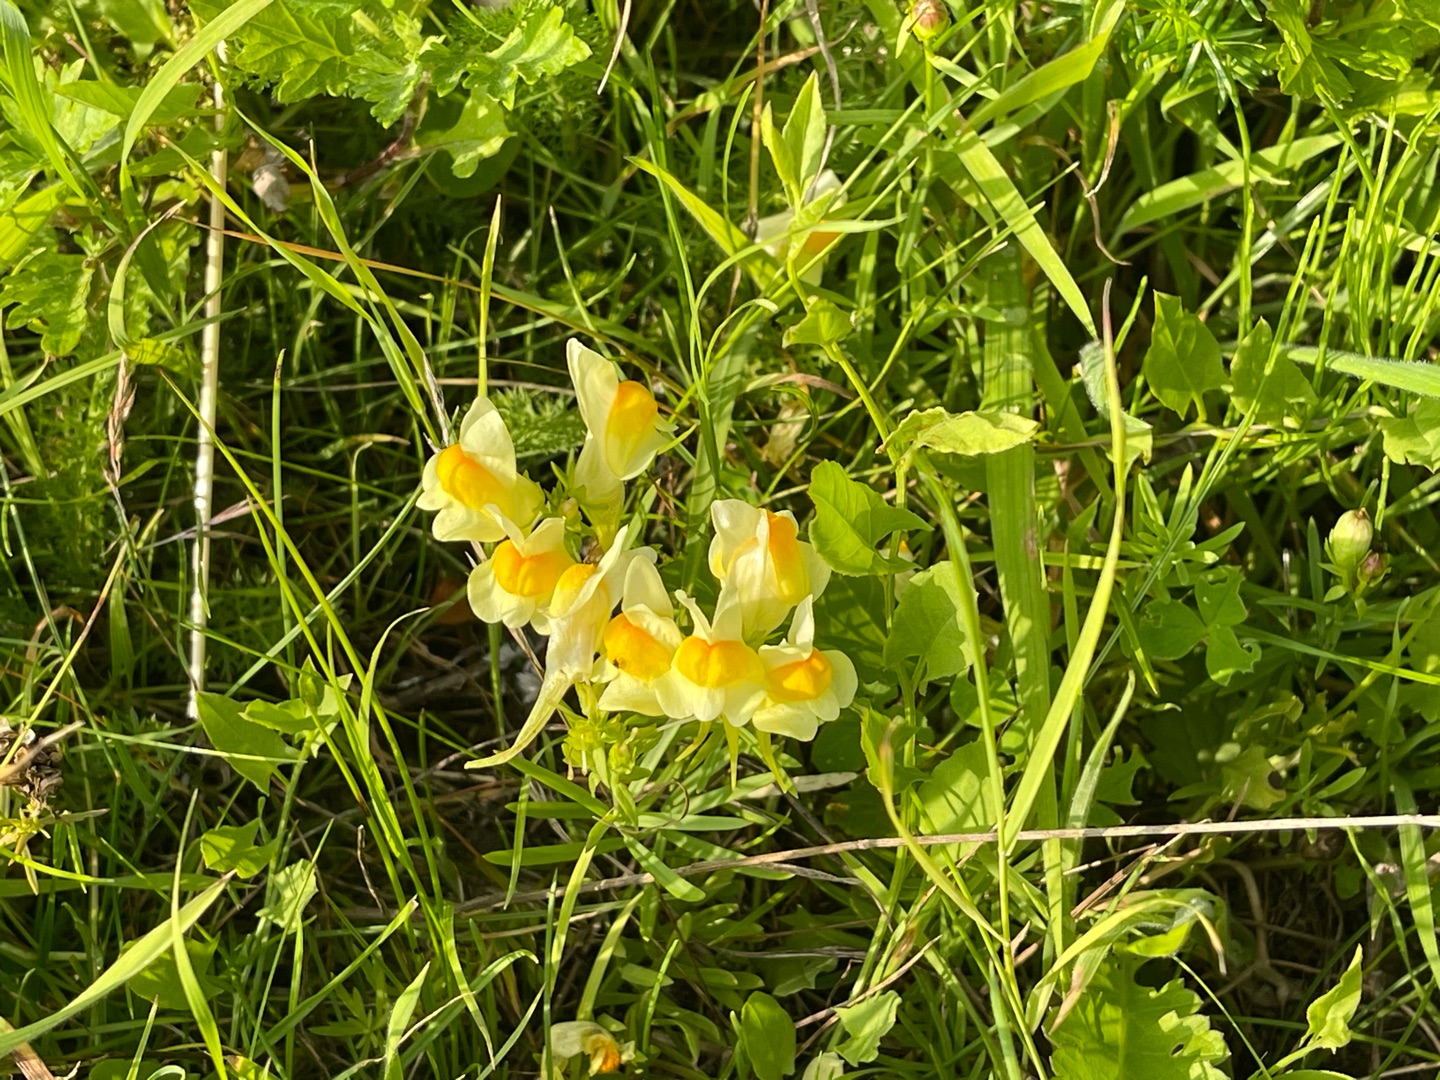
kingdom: Plantae
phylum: Tracheophyta
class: Magnoliopsida
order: Lamiales
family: Plantaginaceae
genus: Linaria
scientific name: Linaria vulgaris
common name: Almindelig torskemund
